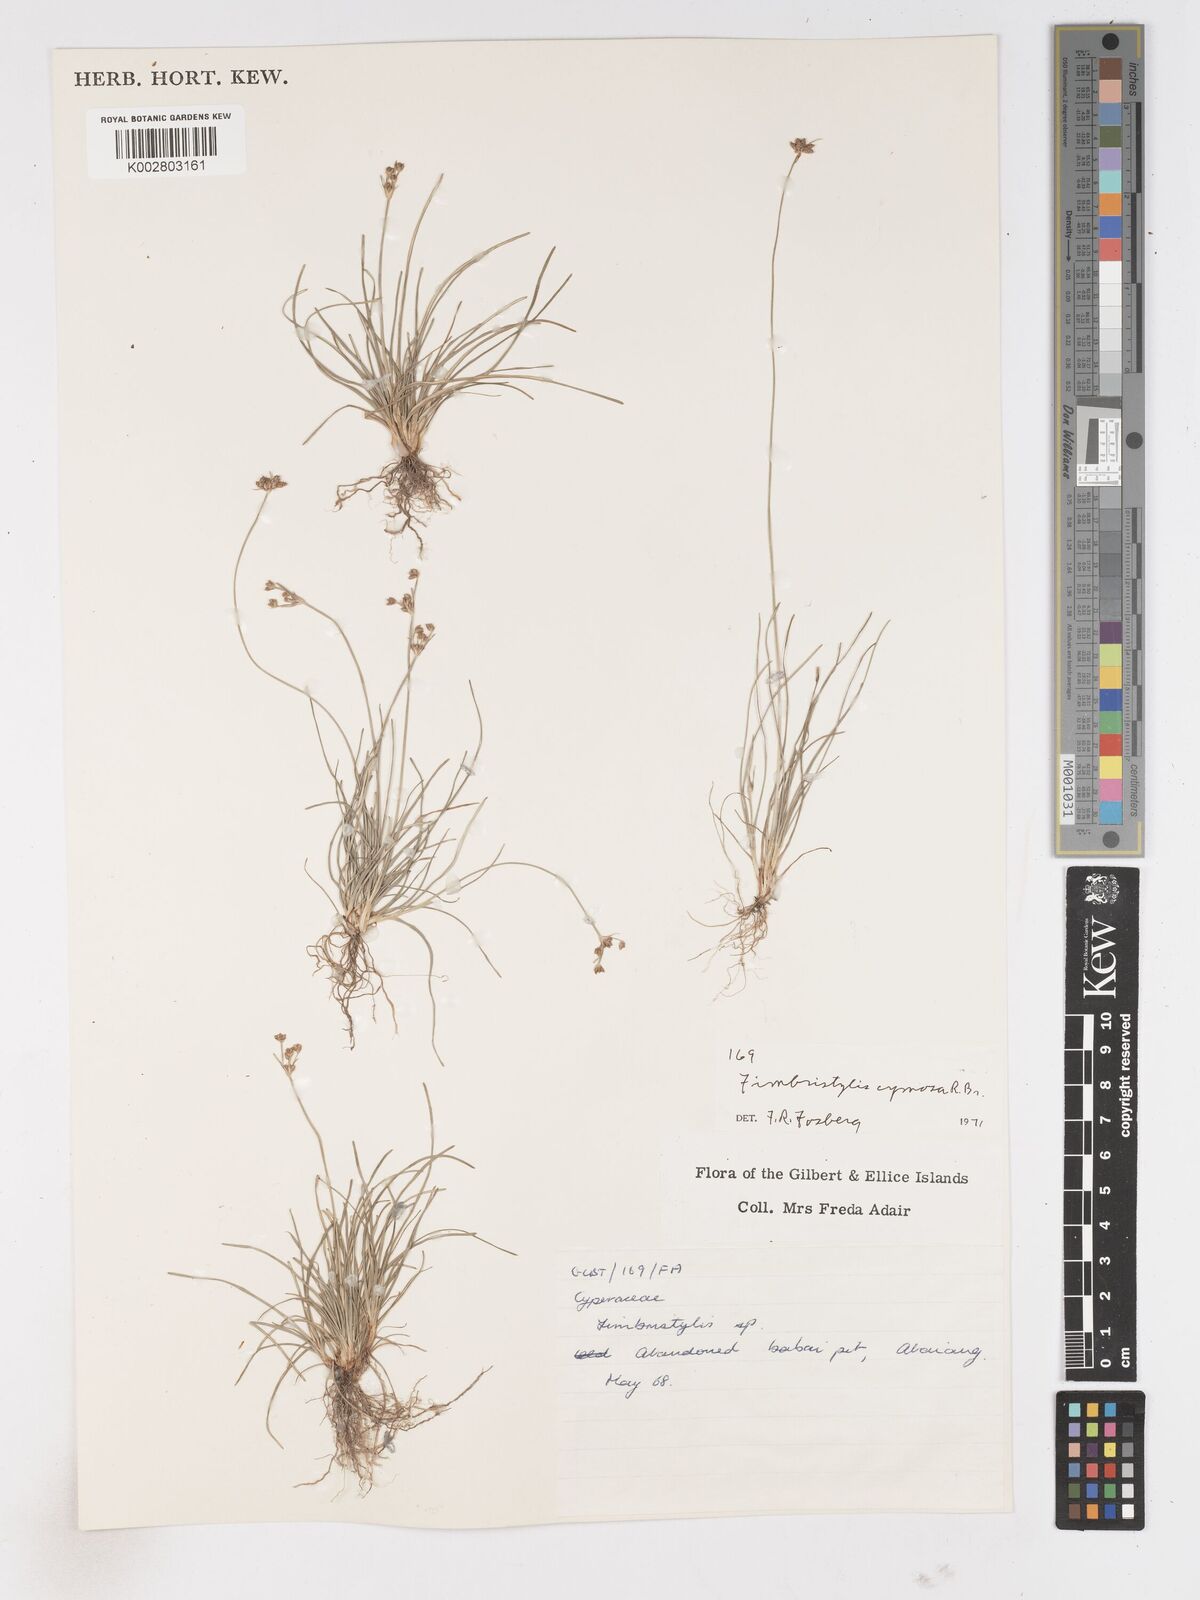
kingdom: Plantae
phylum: Tracheophyta
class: Liliopsida
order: Poales
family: Cyperaceae
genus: Fimbristylis
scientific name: Fimbristylis cymosa
